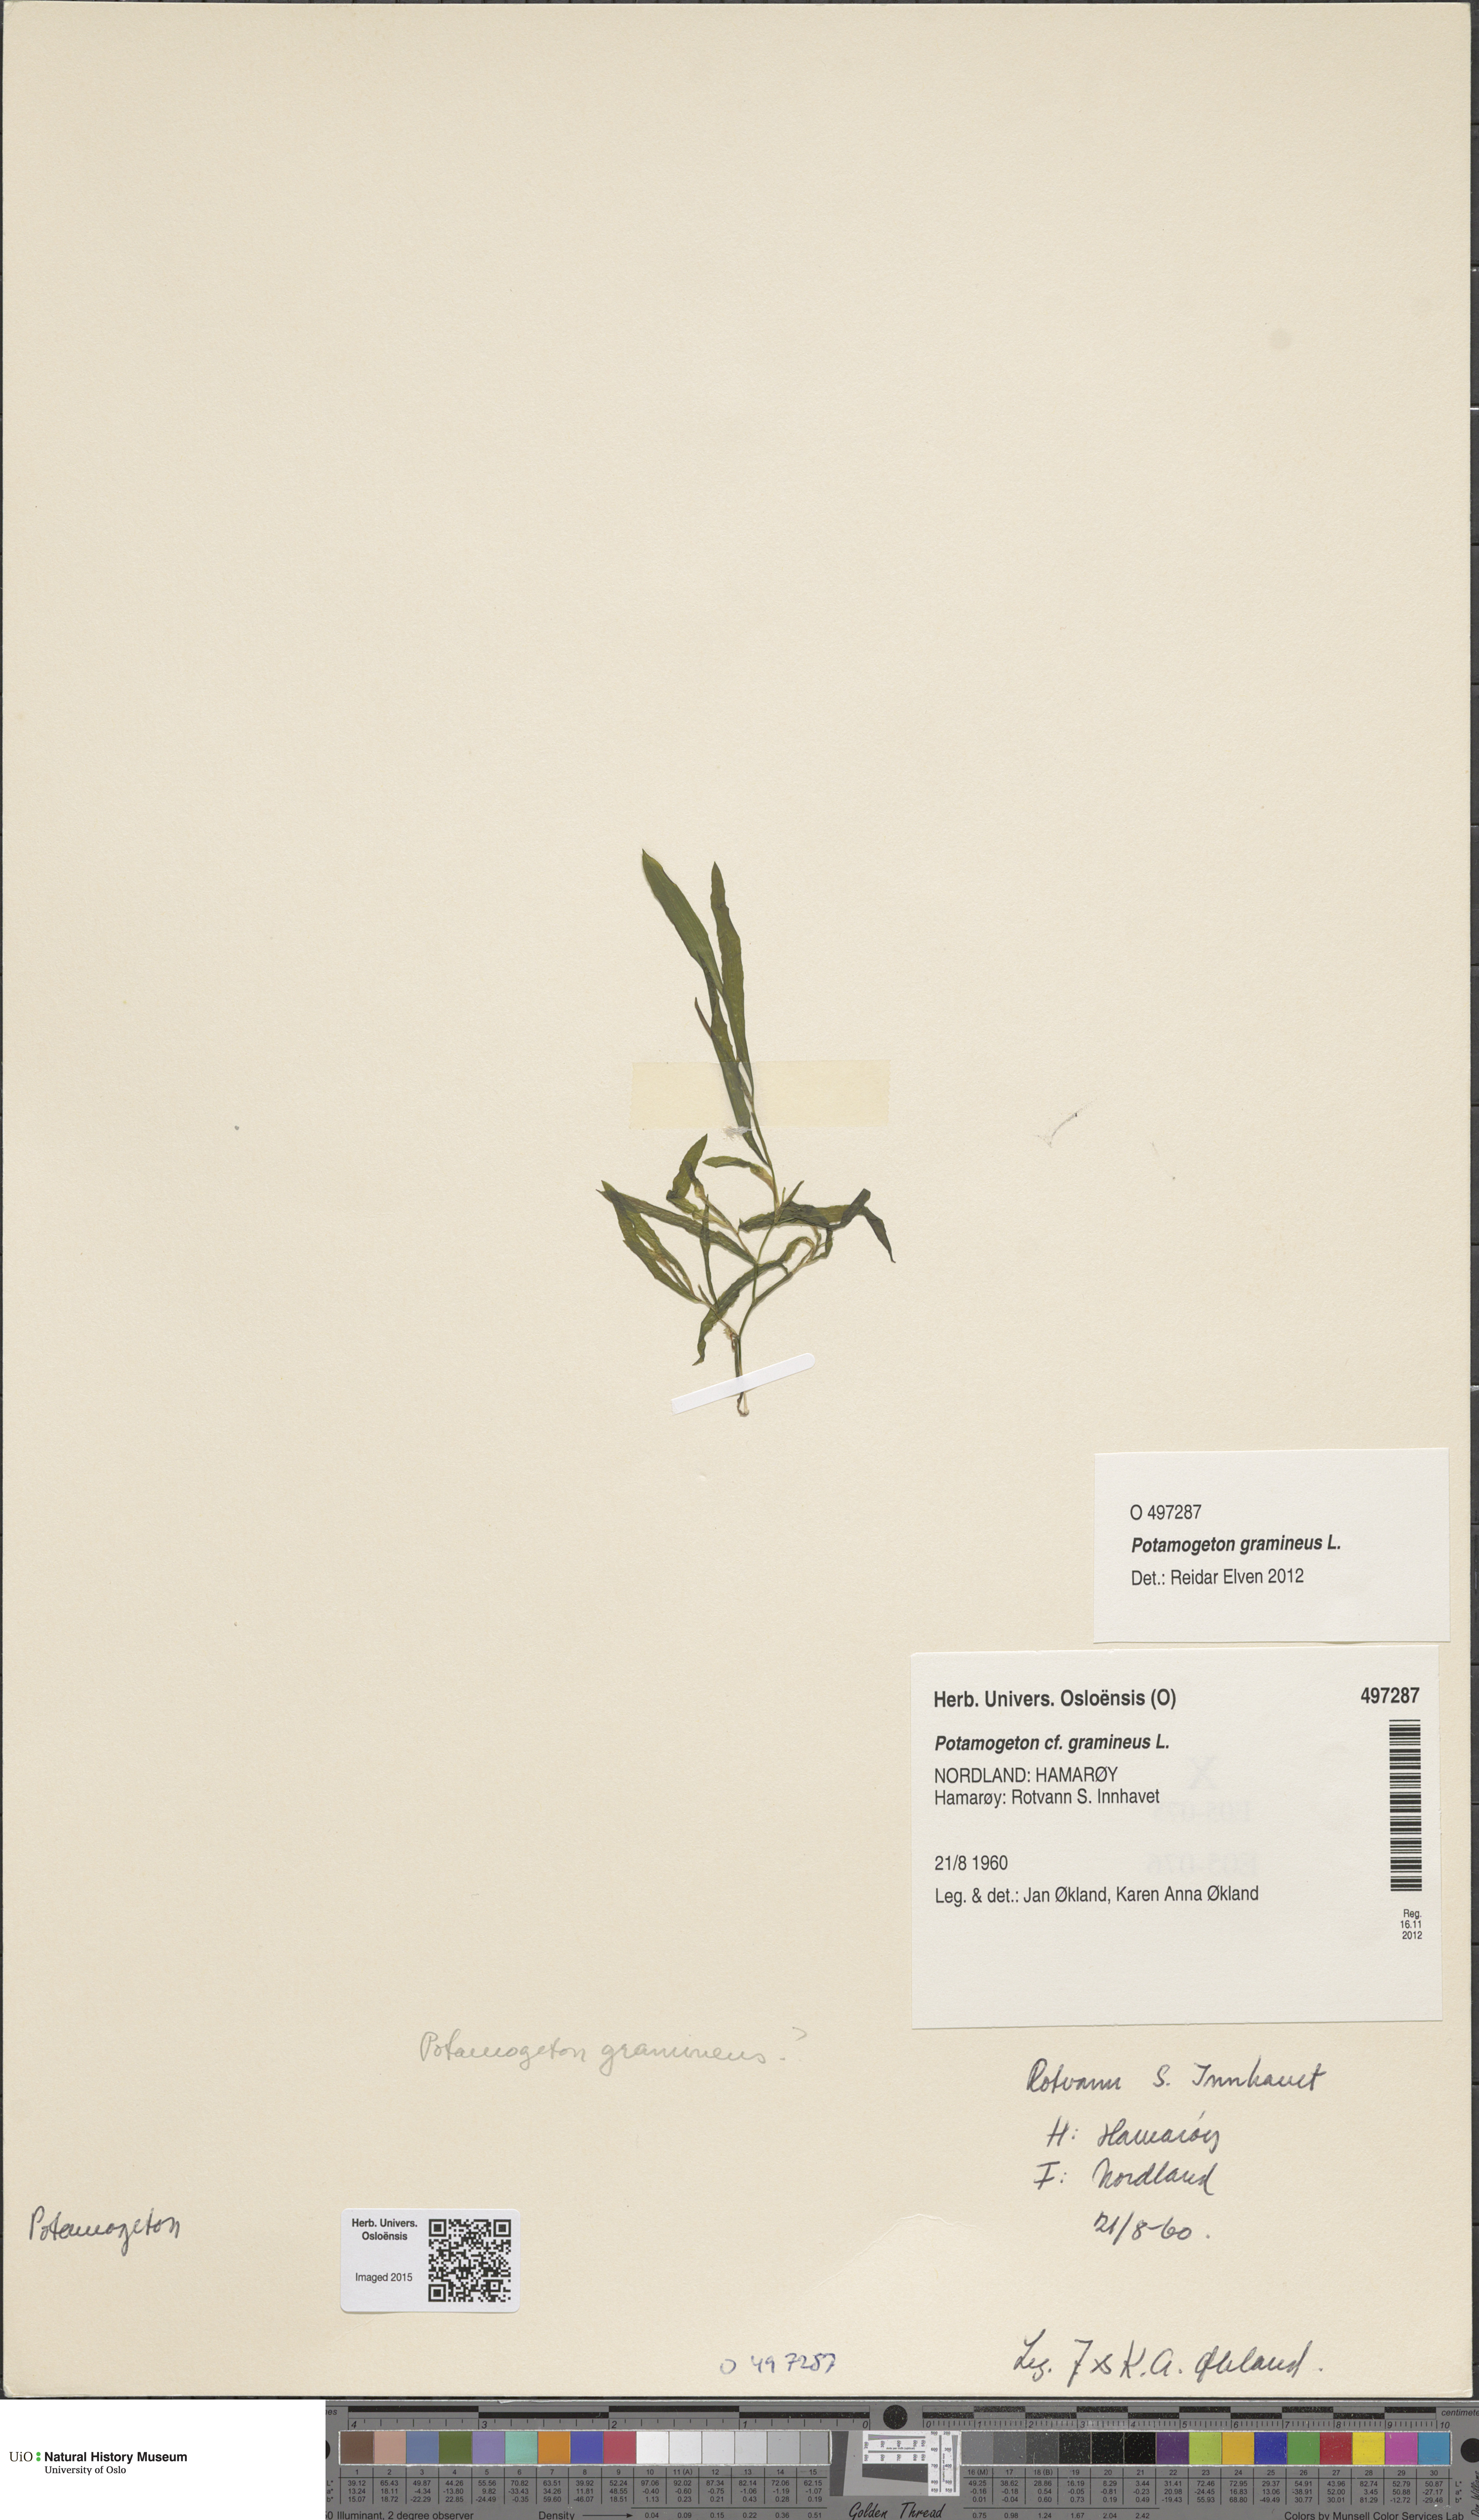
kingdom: Plantae
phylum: Tracheophyta
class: Liliopsida
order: Alismatales
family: Potamogetonaceae
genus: Potamogeton
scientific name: Potamogeton gramineus
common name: Various-leaved pondweed
